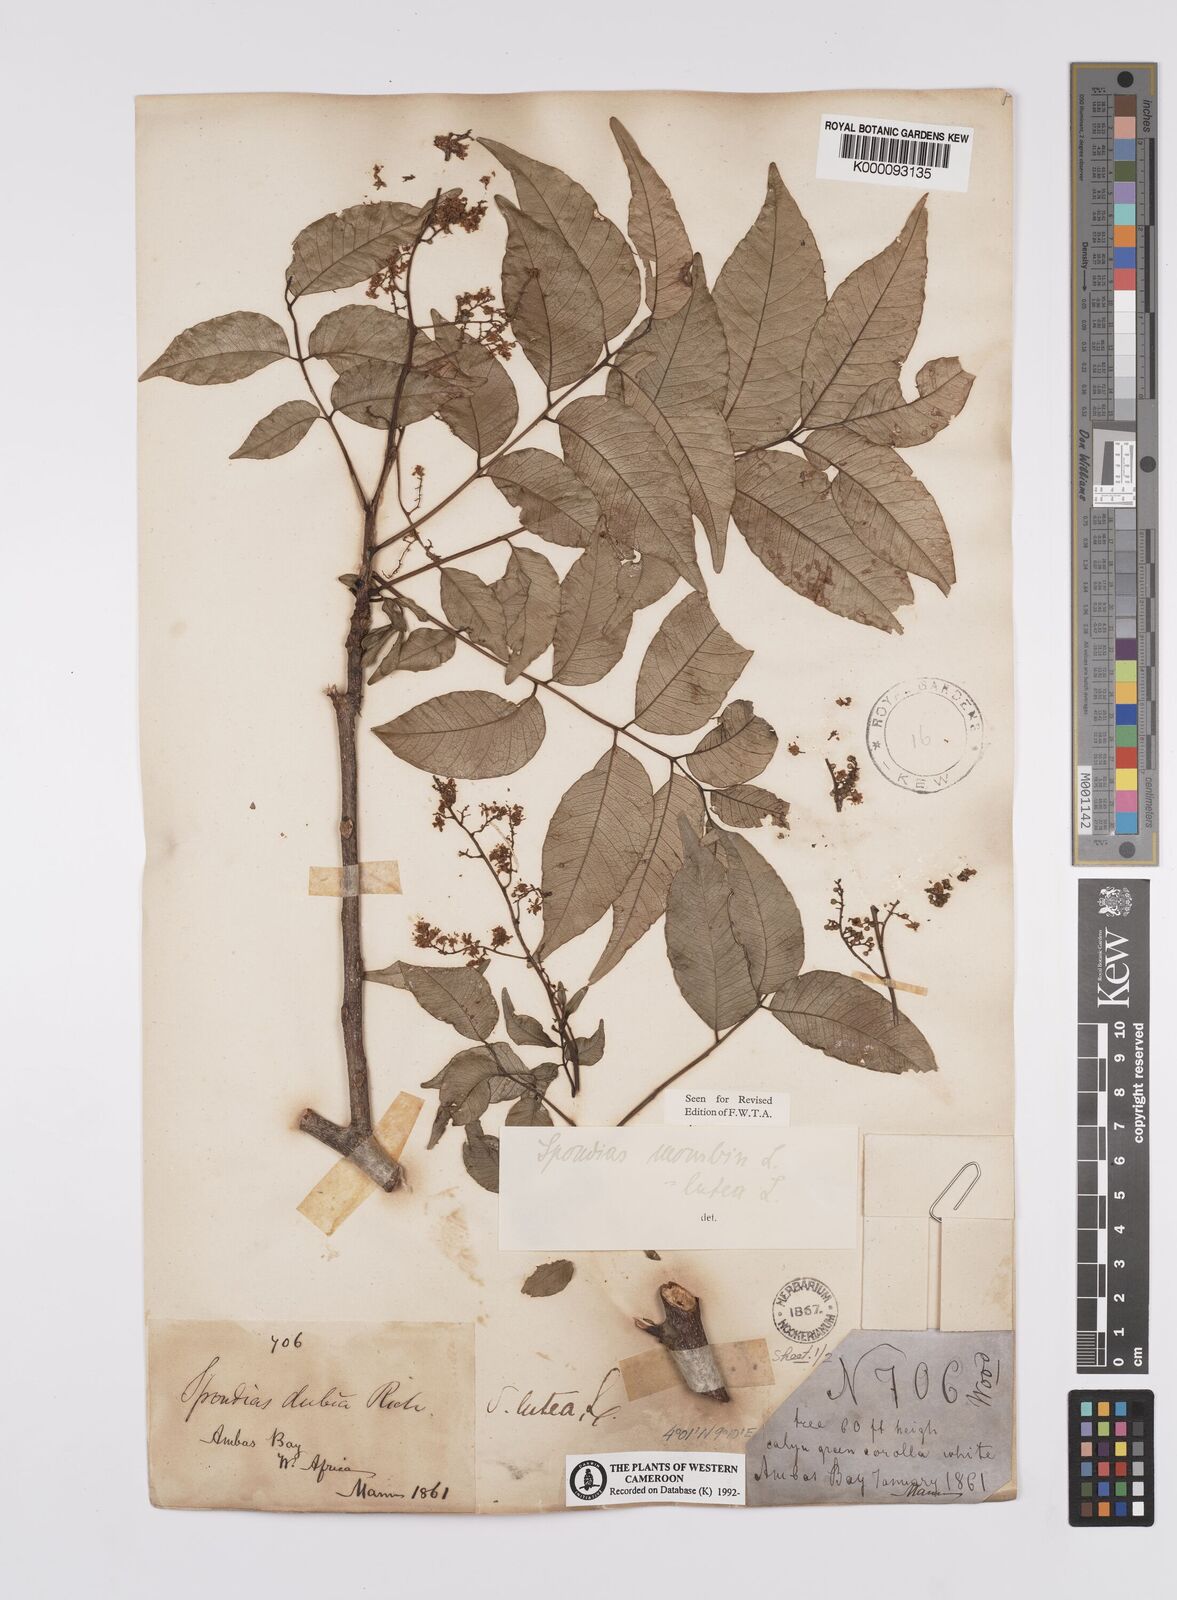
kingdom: Plantae
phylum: Tracheophyta
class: Magnoliopsida
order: Sapindales
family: Anacardiaceae
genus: Spondias
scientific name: Spondias mombin
